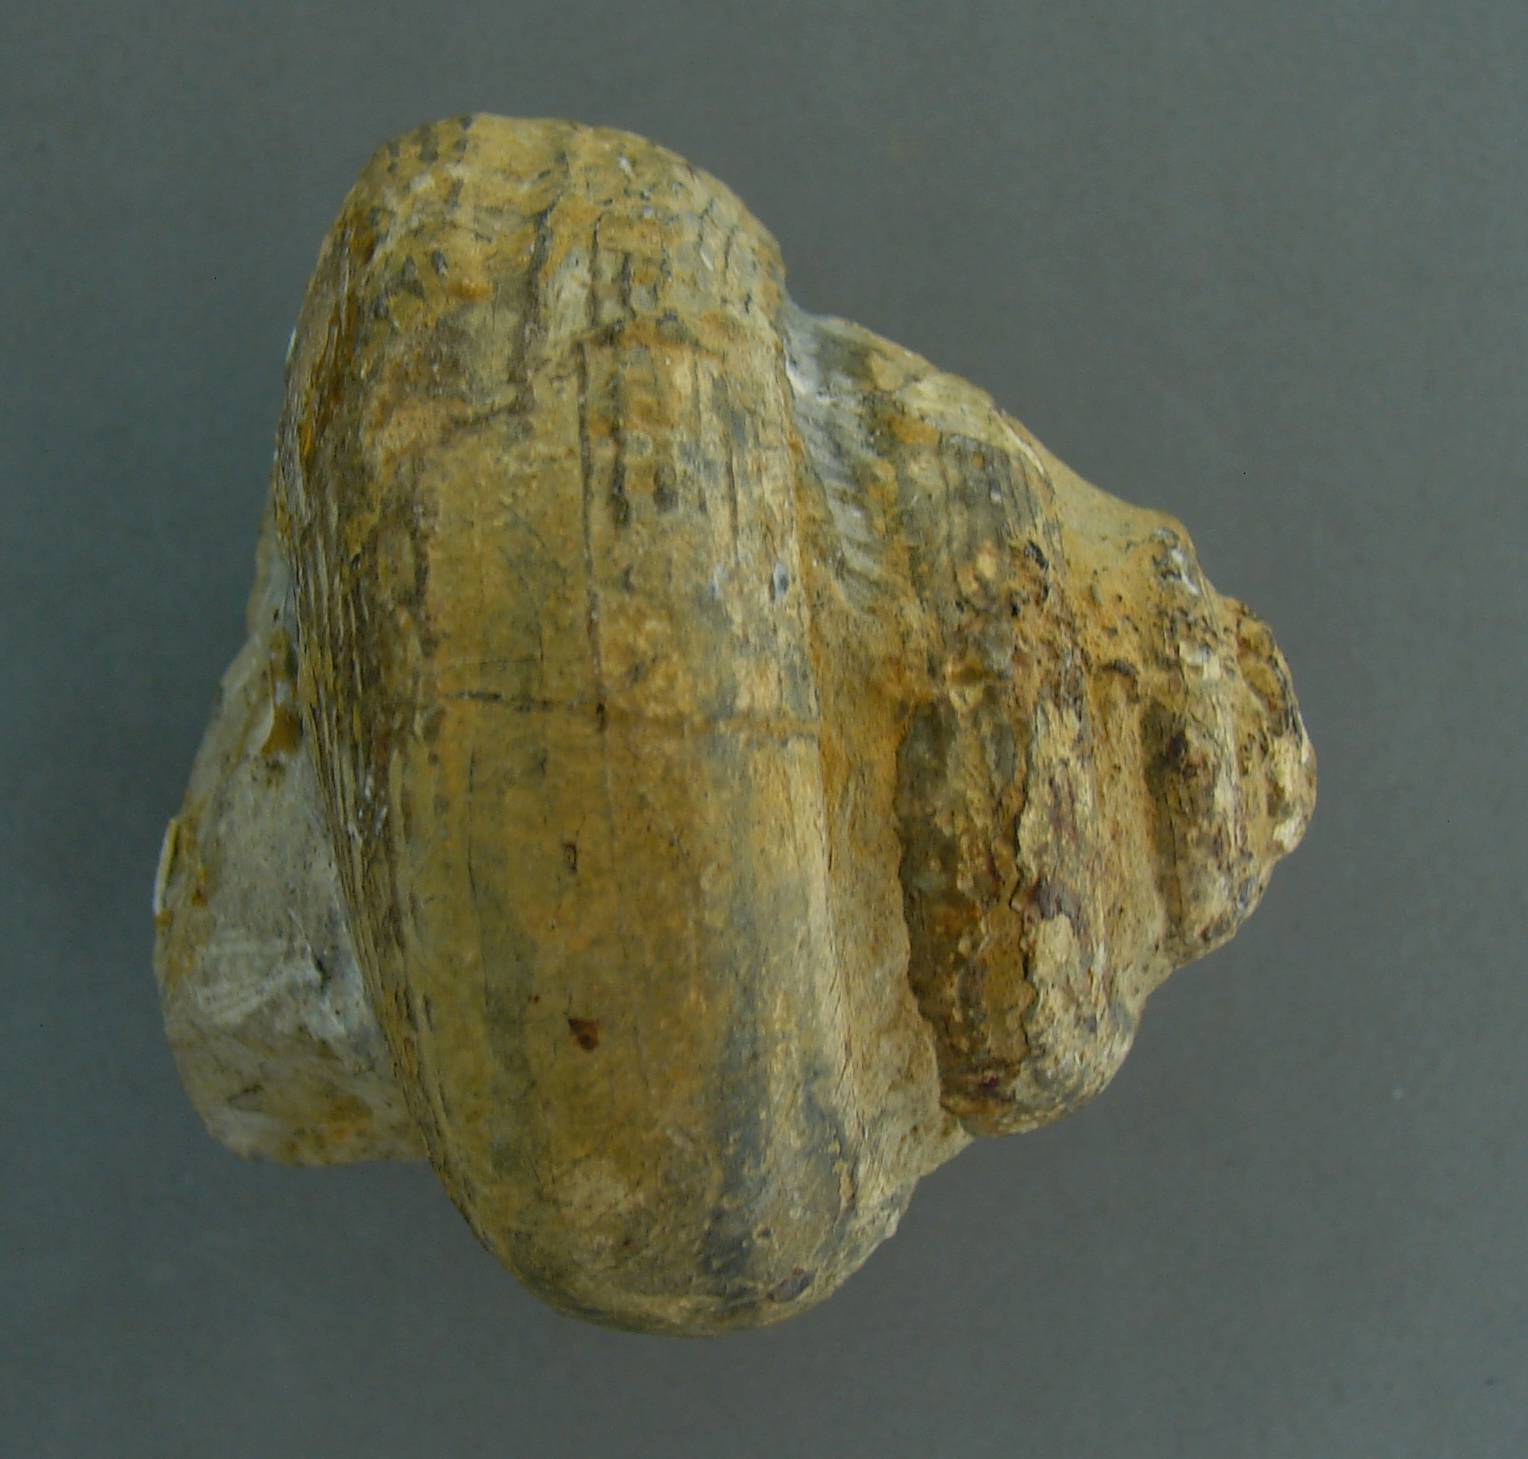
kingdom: Animalia
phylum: Mollusca
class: Gastropoda
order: Pleurotomariida
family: Pleurotomariidae
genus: Pleurotomaria
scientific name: Pleurotomaria
